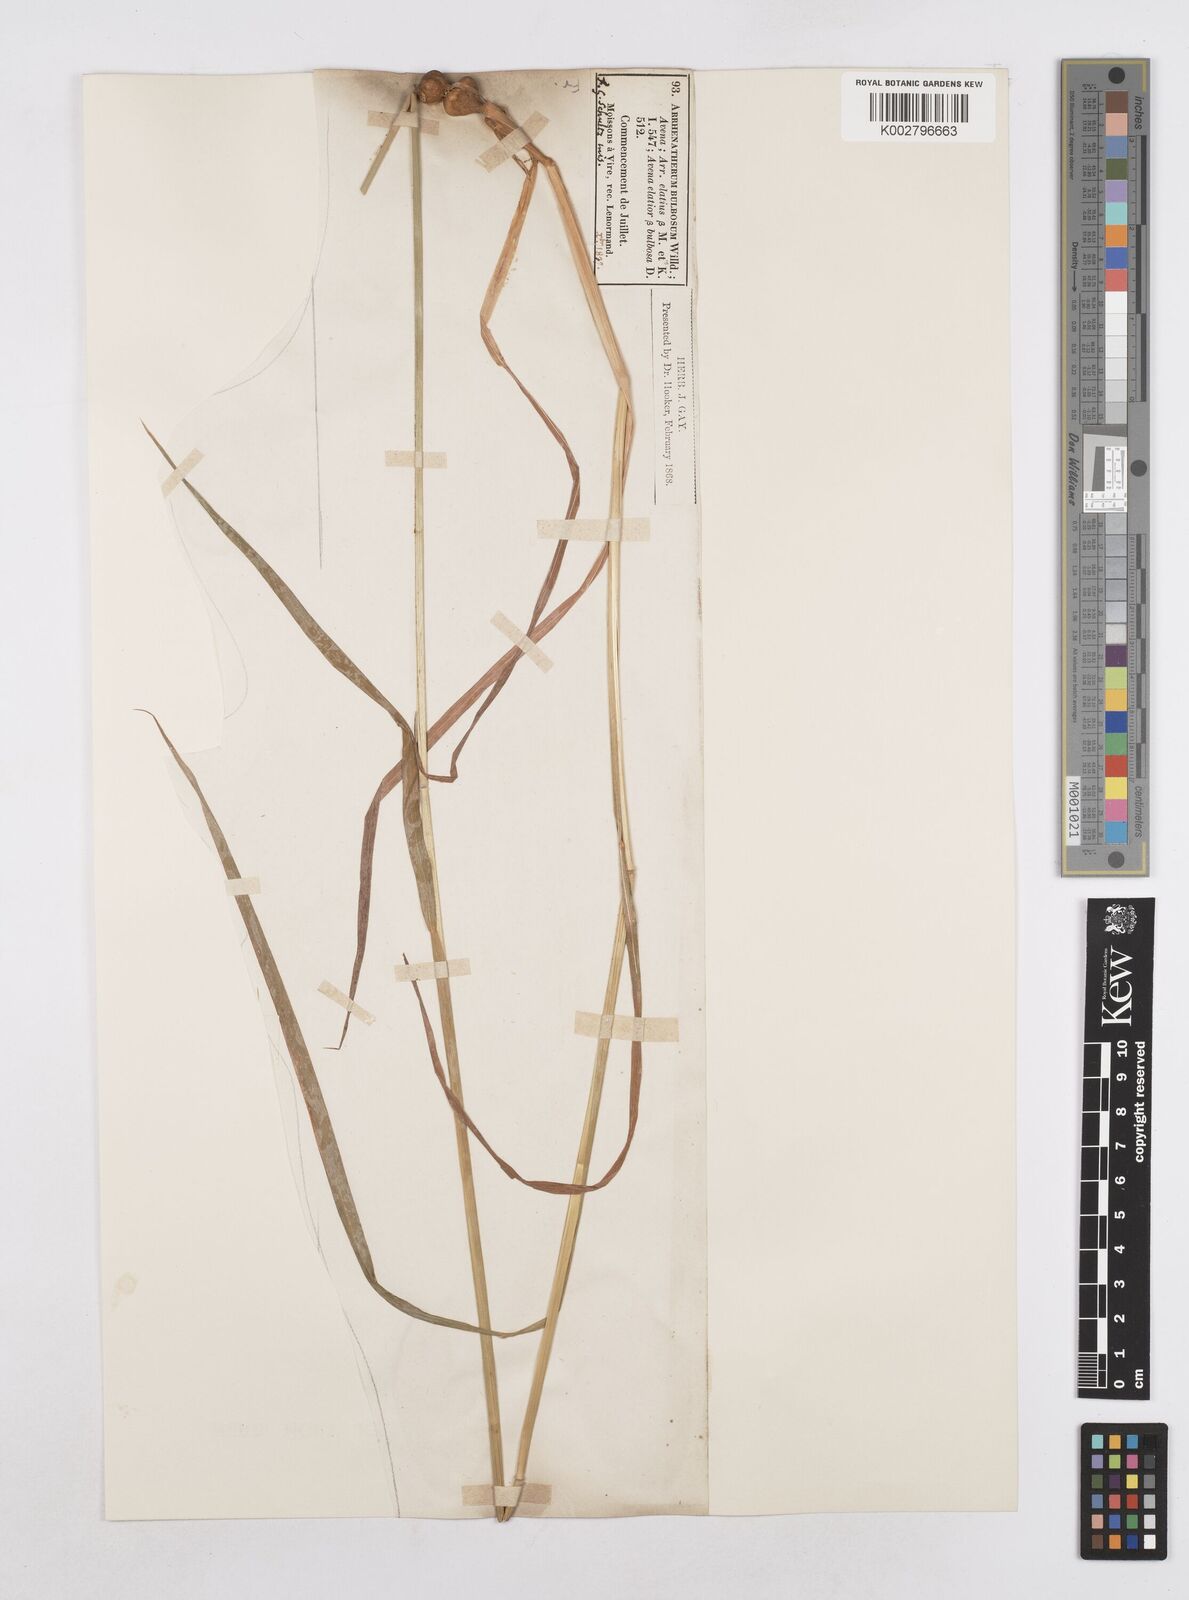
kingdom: Plantae
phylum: Tracheophyta
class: Liliopsida
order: Poales
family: Poaceae
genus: Arrhenatherum
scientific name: Arrhenatherum elatius
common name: Tall oatgrass
